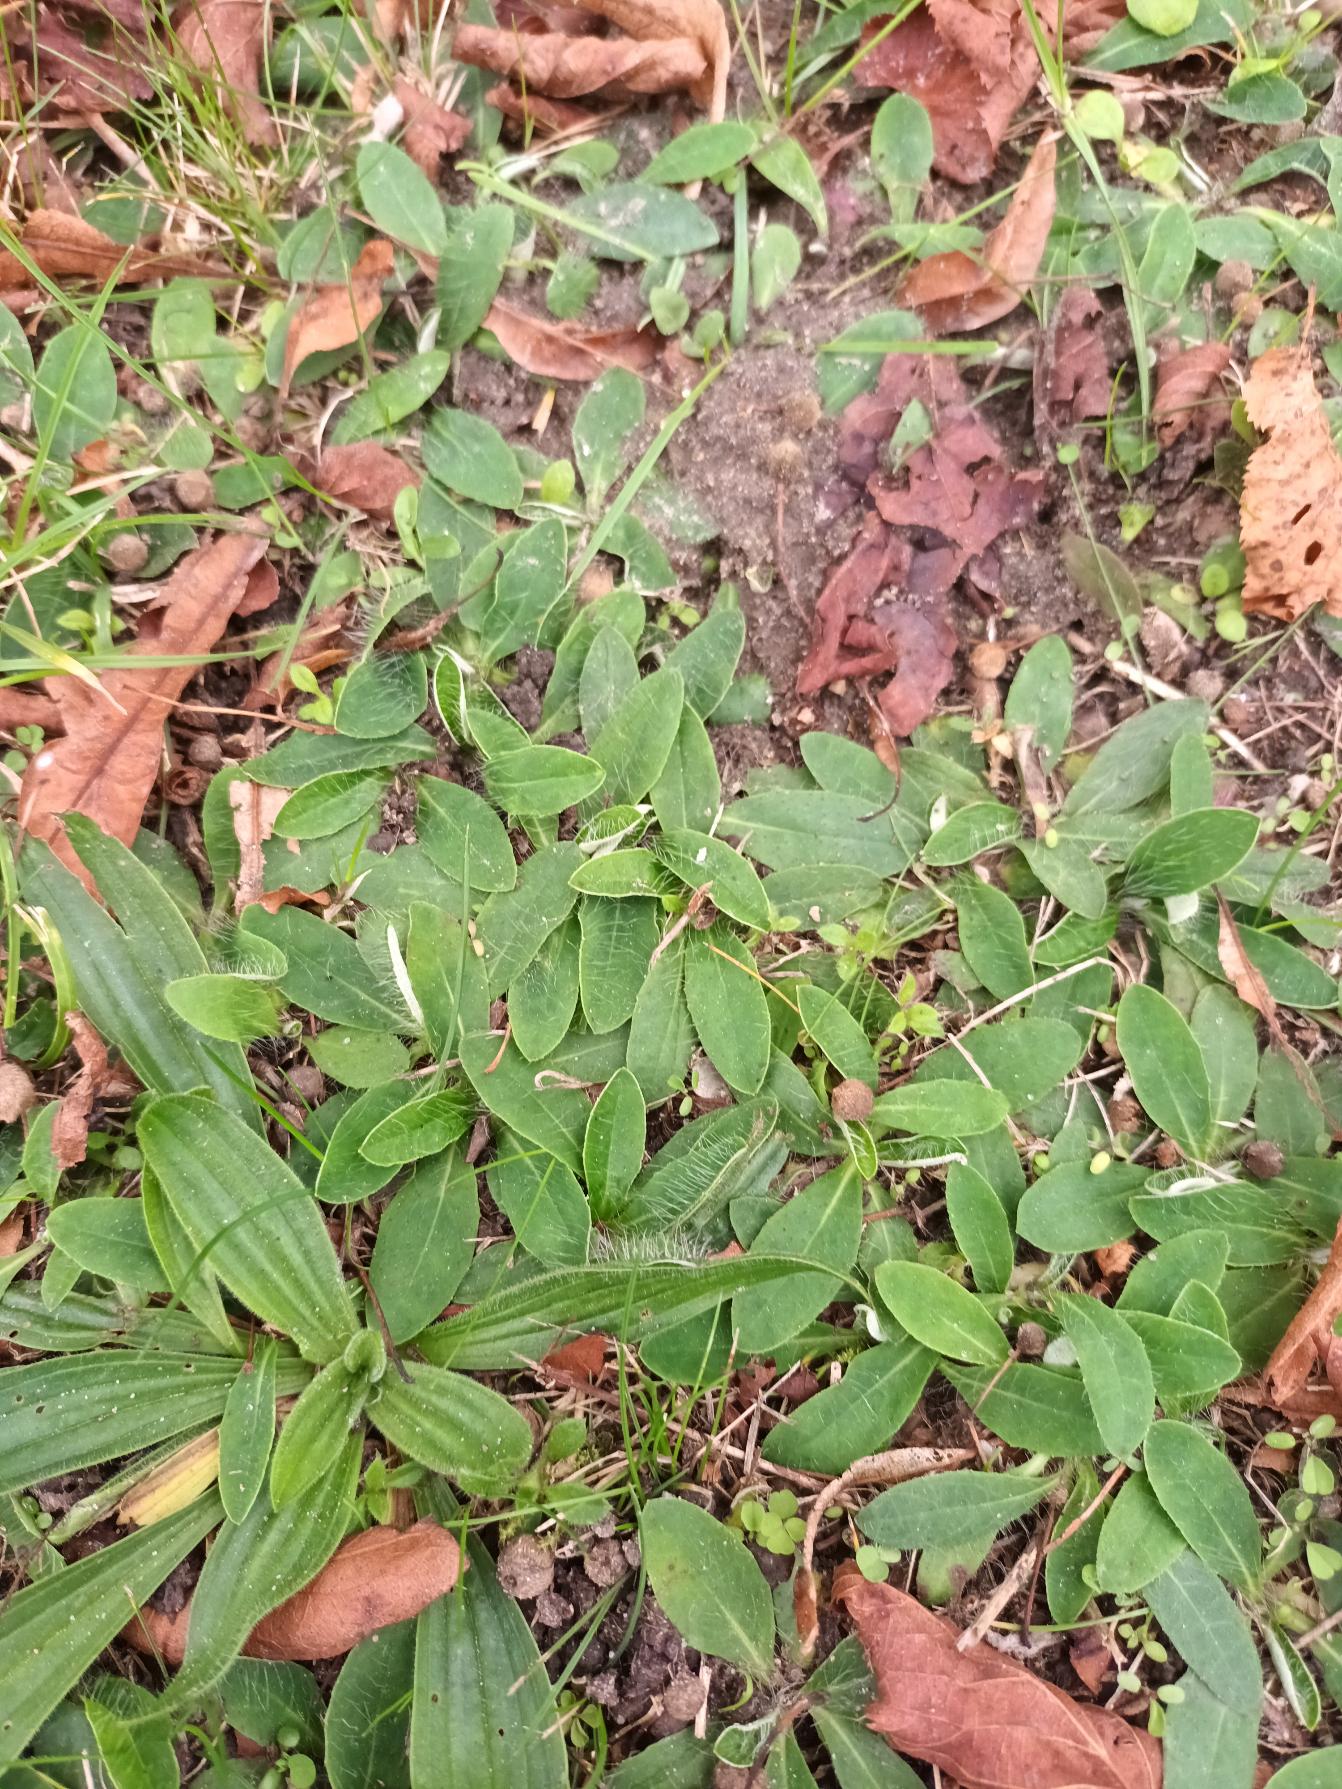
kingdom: Plantae
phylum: Tracheophyta
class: Magnoliopsida
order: Asterales
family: Asteraceae
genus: Pilosella
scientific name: Pilosella officinarum
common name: Håret høgeurt
